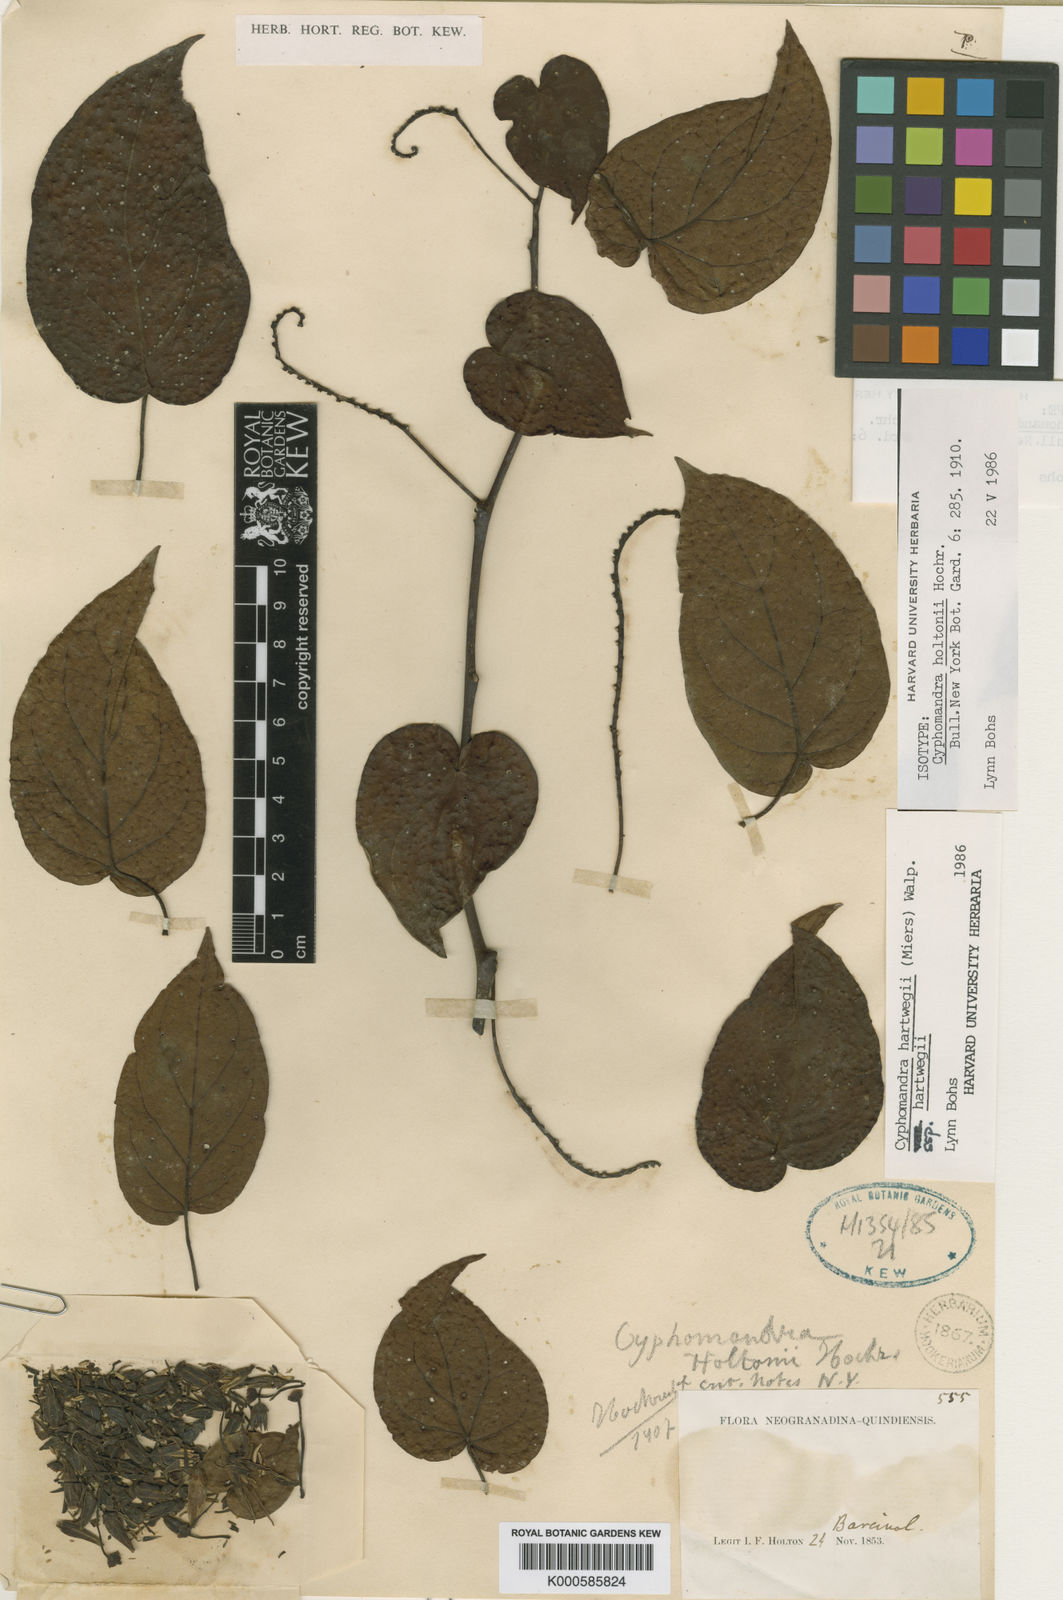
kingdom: Plantae
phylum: Tracheophyta
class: Magnoliopsida
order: Solanales
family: Solanaceae
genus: Solanum
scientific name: Solanum splendens
